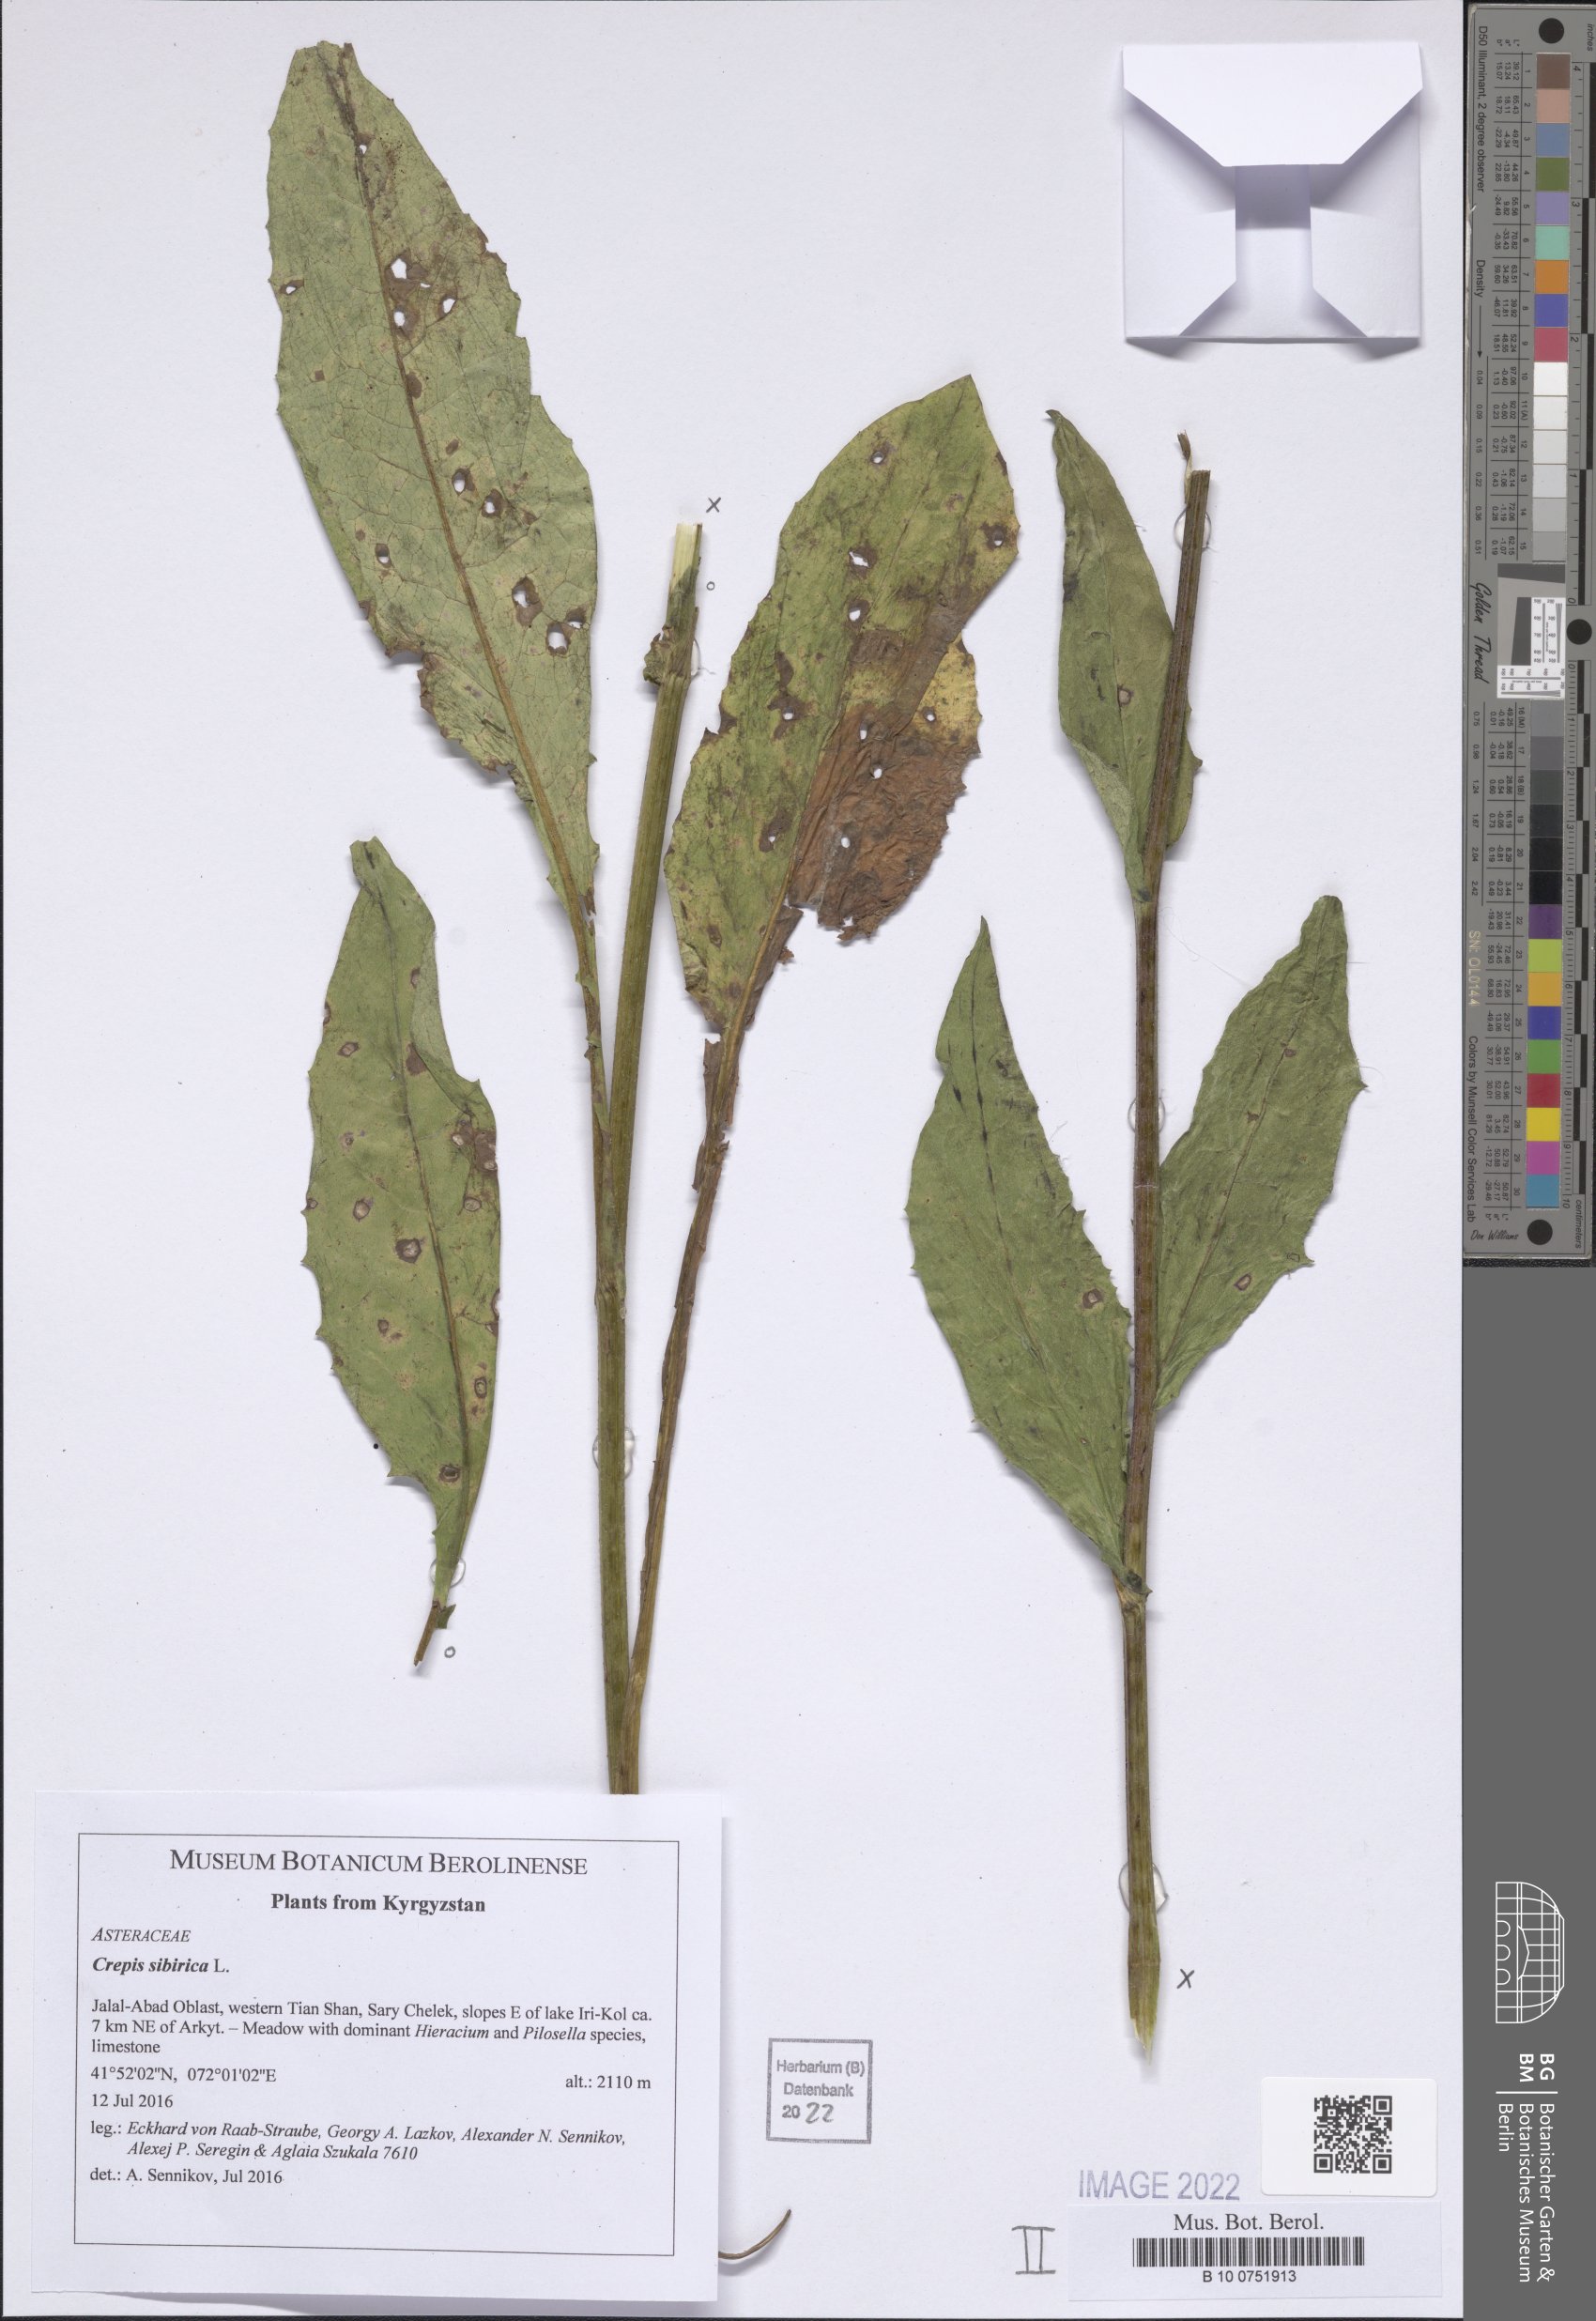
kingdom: Plantae
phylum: Tracheophyta
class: Magnoliopsida
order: Asterales
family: Asteraceae
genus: Crepis
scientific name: Crepis sibirica
